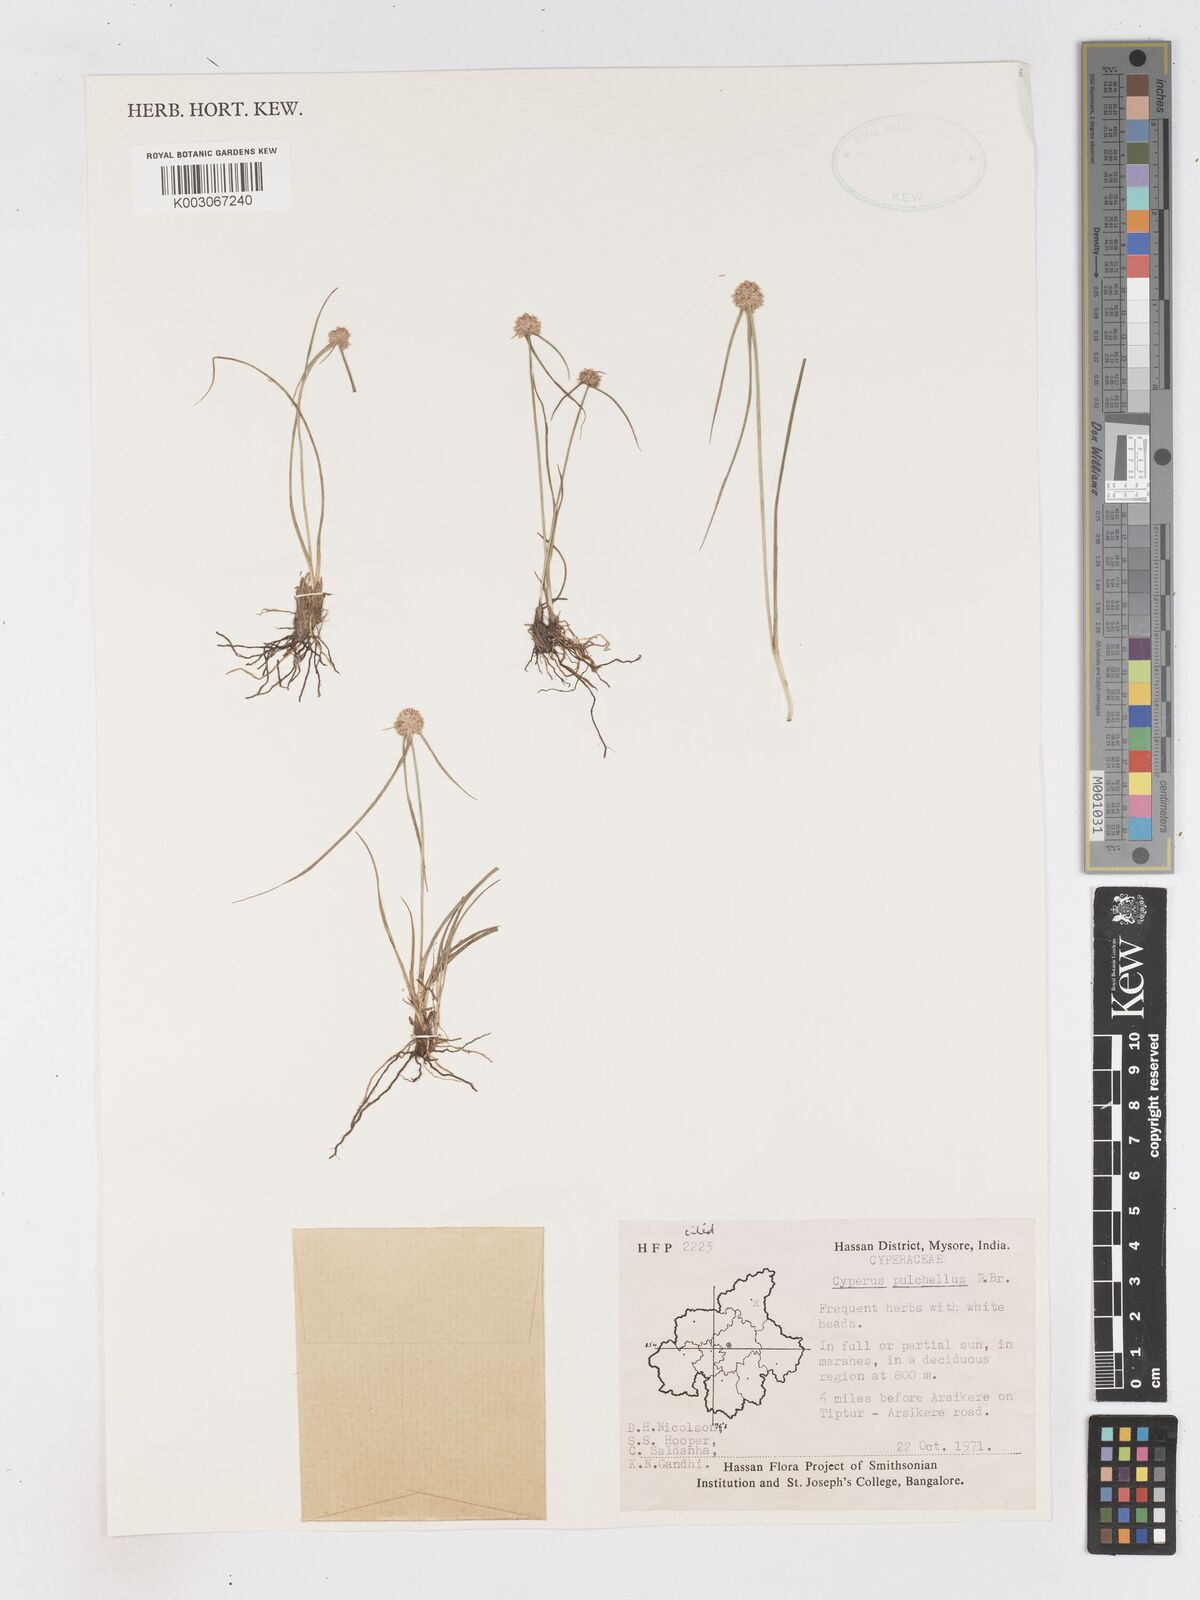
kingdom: Plantae
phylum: Tracheophyta
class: Liliopsida
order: Poales
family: Cyperaceae
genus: Cyperus
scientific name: Cyperus pulchellus
